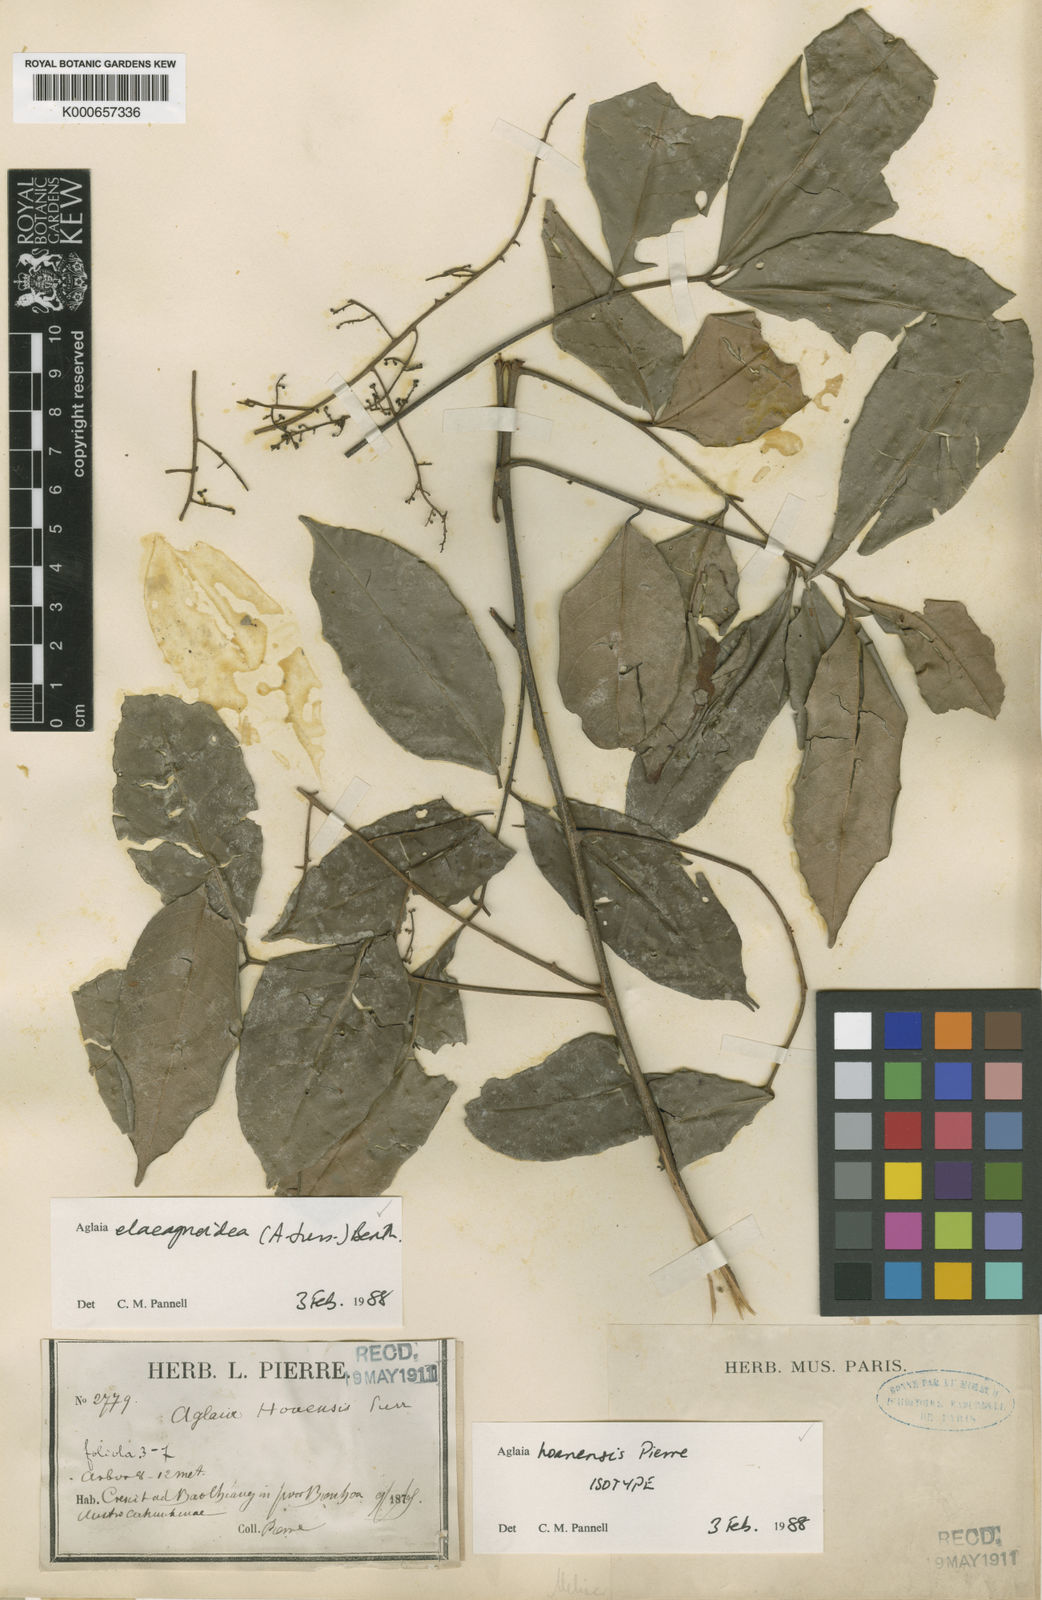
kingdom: Plantae
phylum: Tracheophyta
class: Magnoliopsida
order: Sapindales
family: Meliaceae
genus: Aglaia
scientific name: Aglaia elaeagnoidea
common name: Droopyleaf
